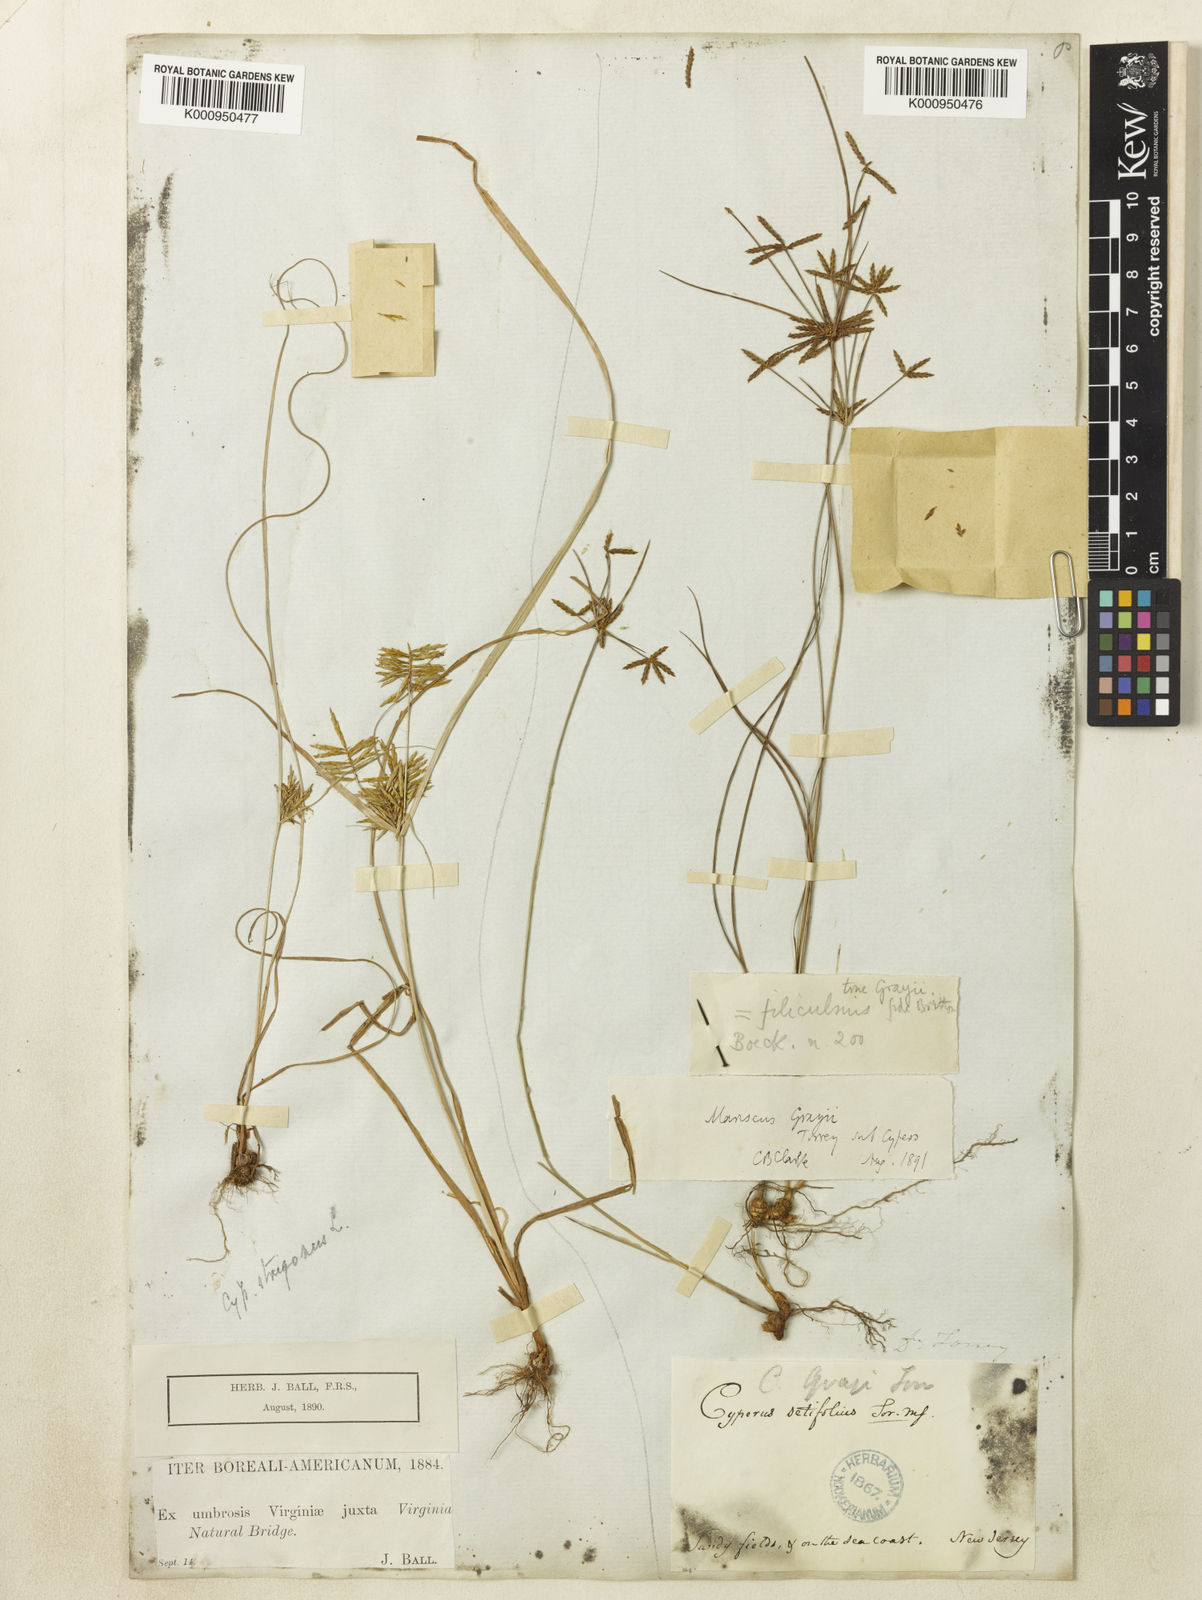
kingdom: Plantae
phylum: Tracheophyta
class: Liliopsida
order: Poales
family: Cyperaceae
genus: Cyperus
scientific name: Cyperus grayi
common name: Gray's flat sedge
